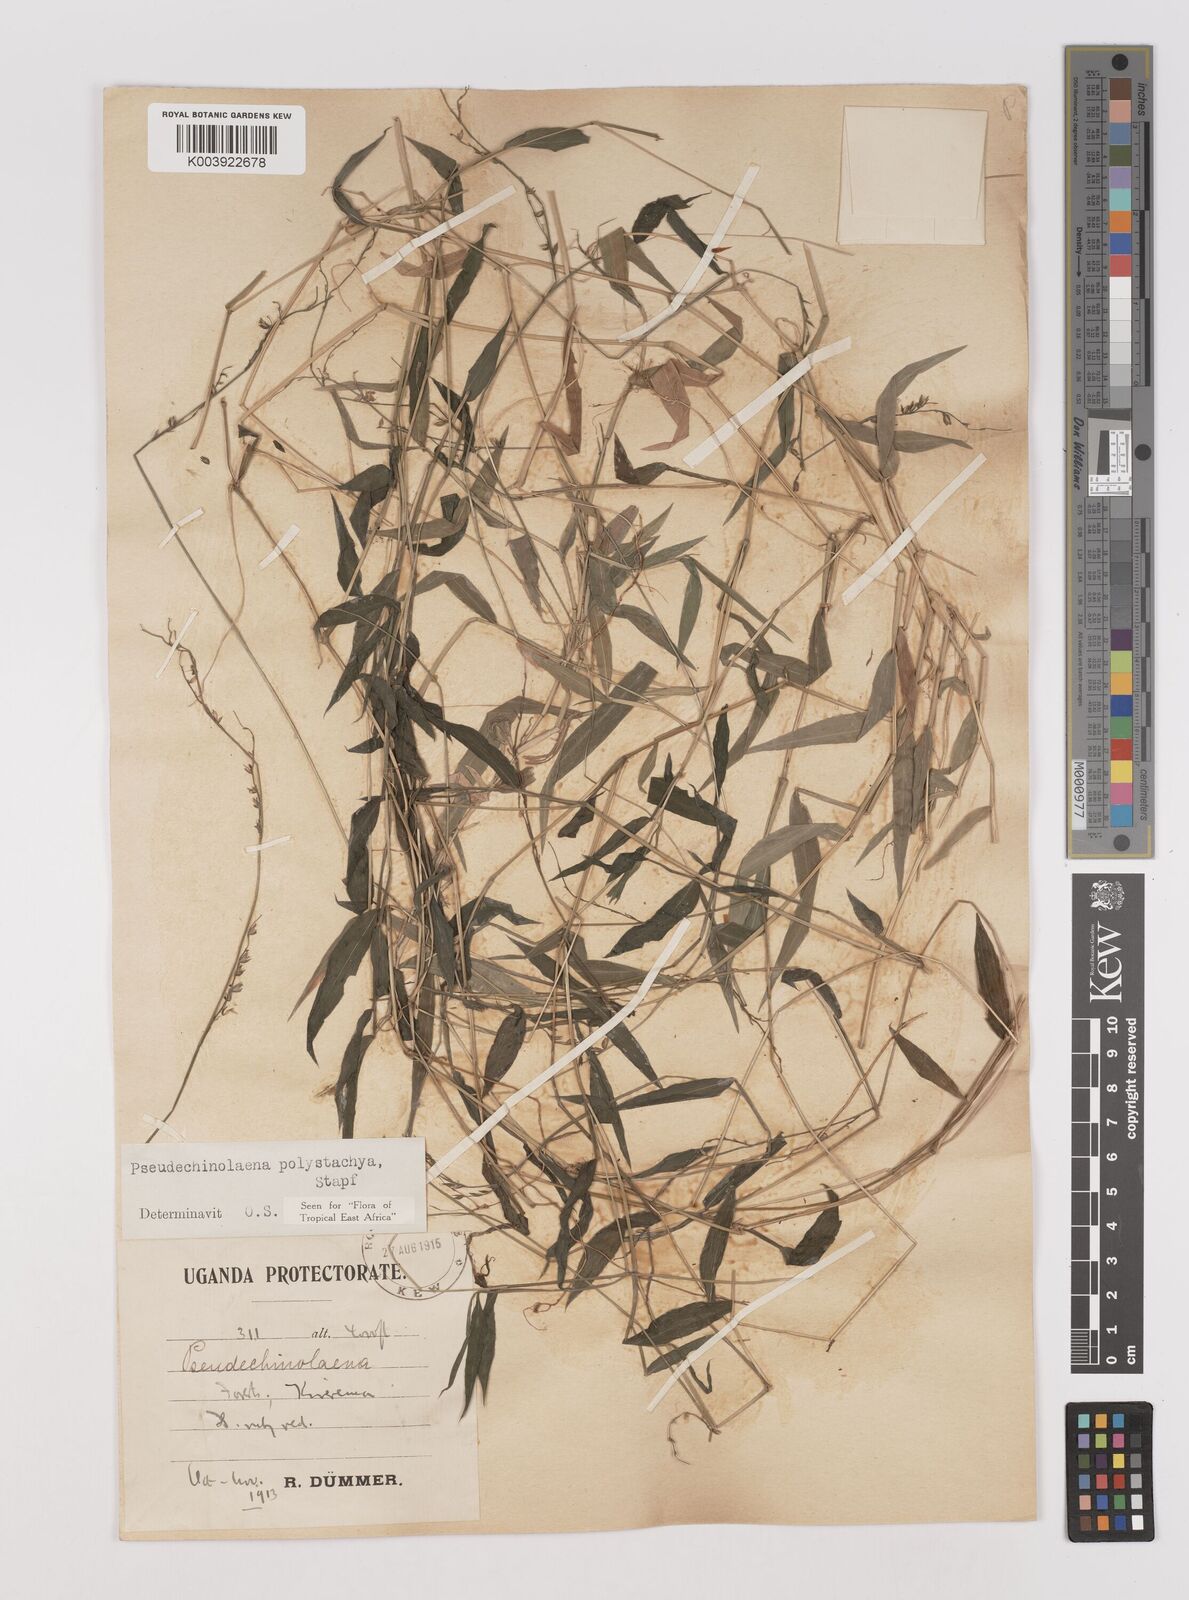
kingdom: Plantae
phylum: Tracheophyta
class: Liliopsida
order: Poales
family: Poaceae
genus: Pseudechinolaena
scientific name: Pseudechinolaena polystachya
